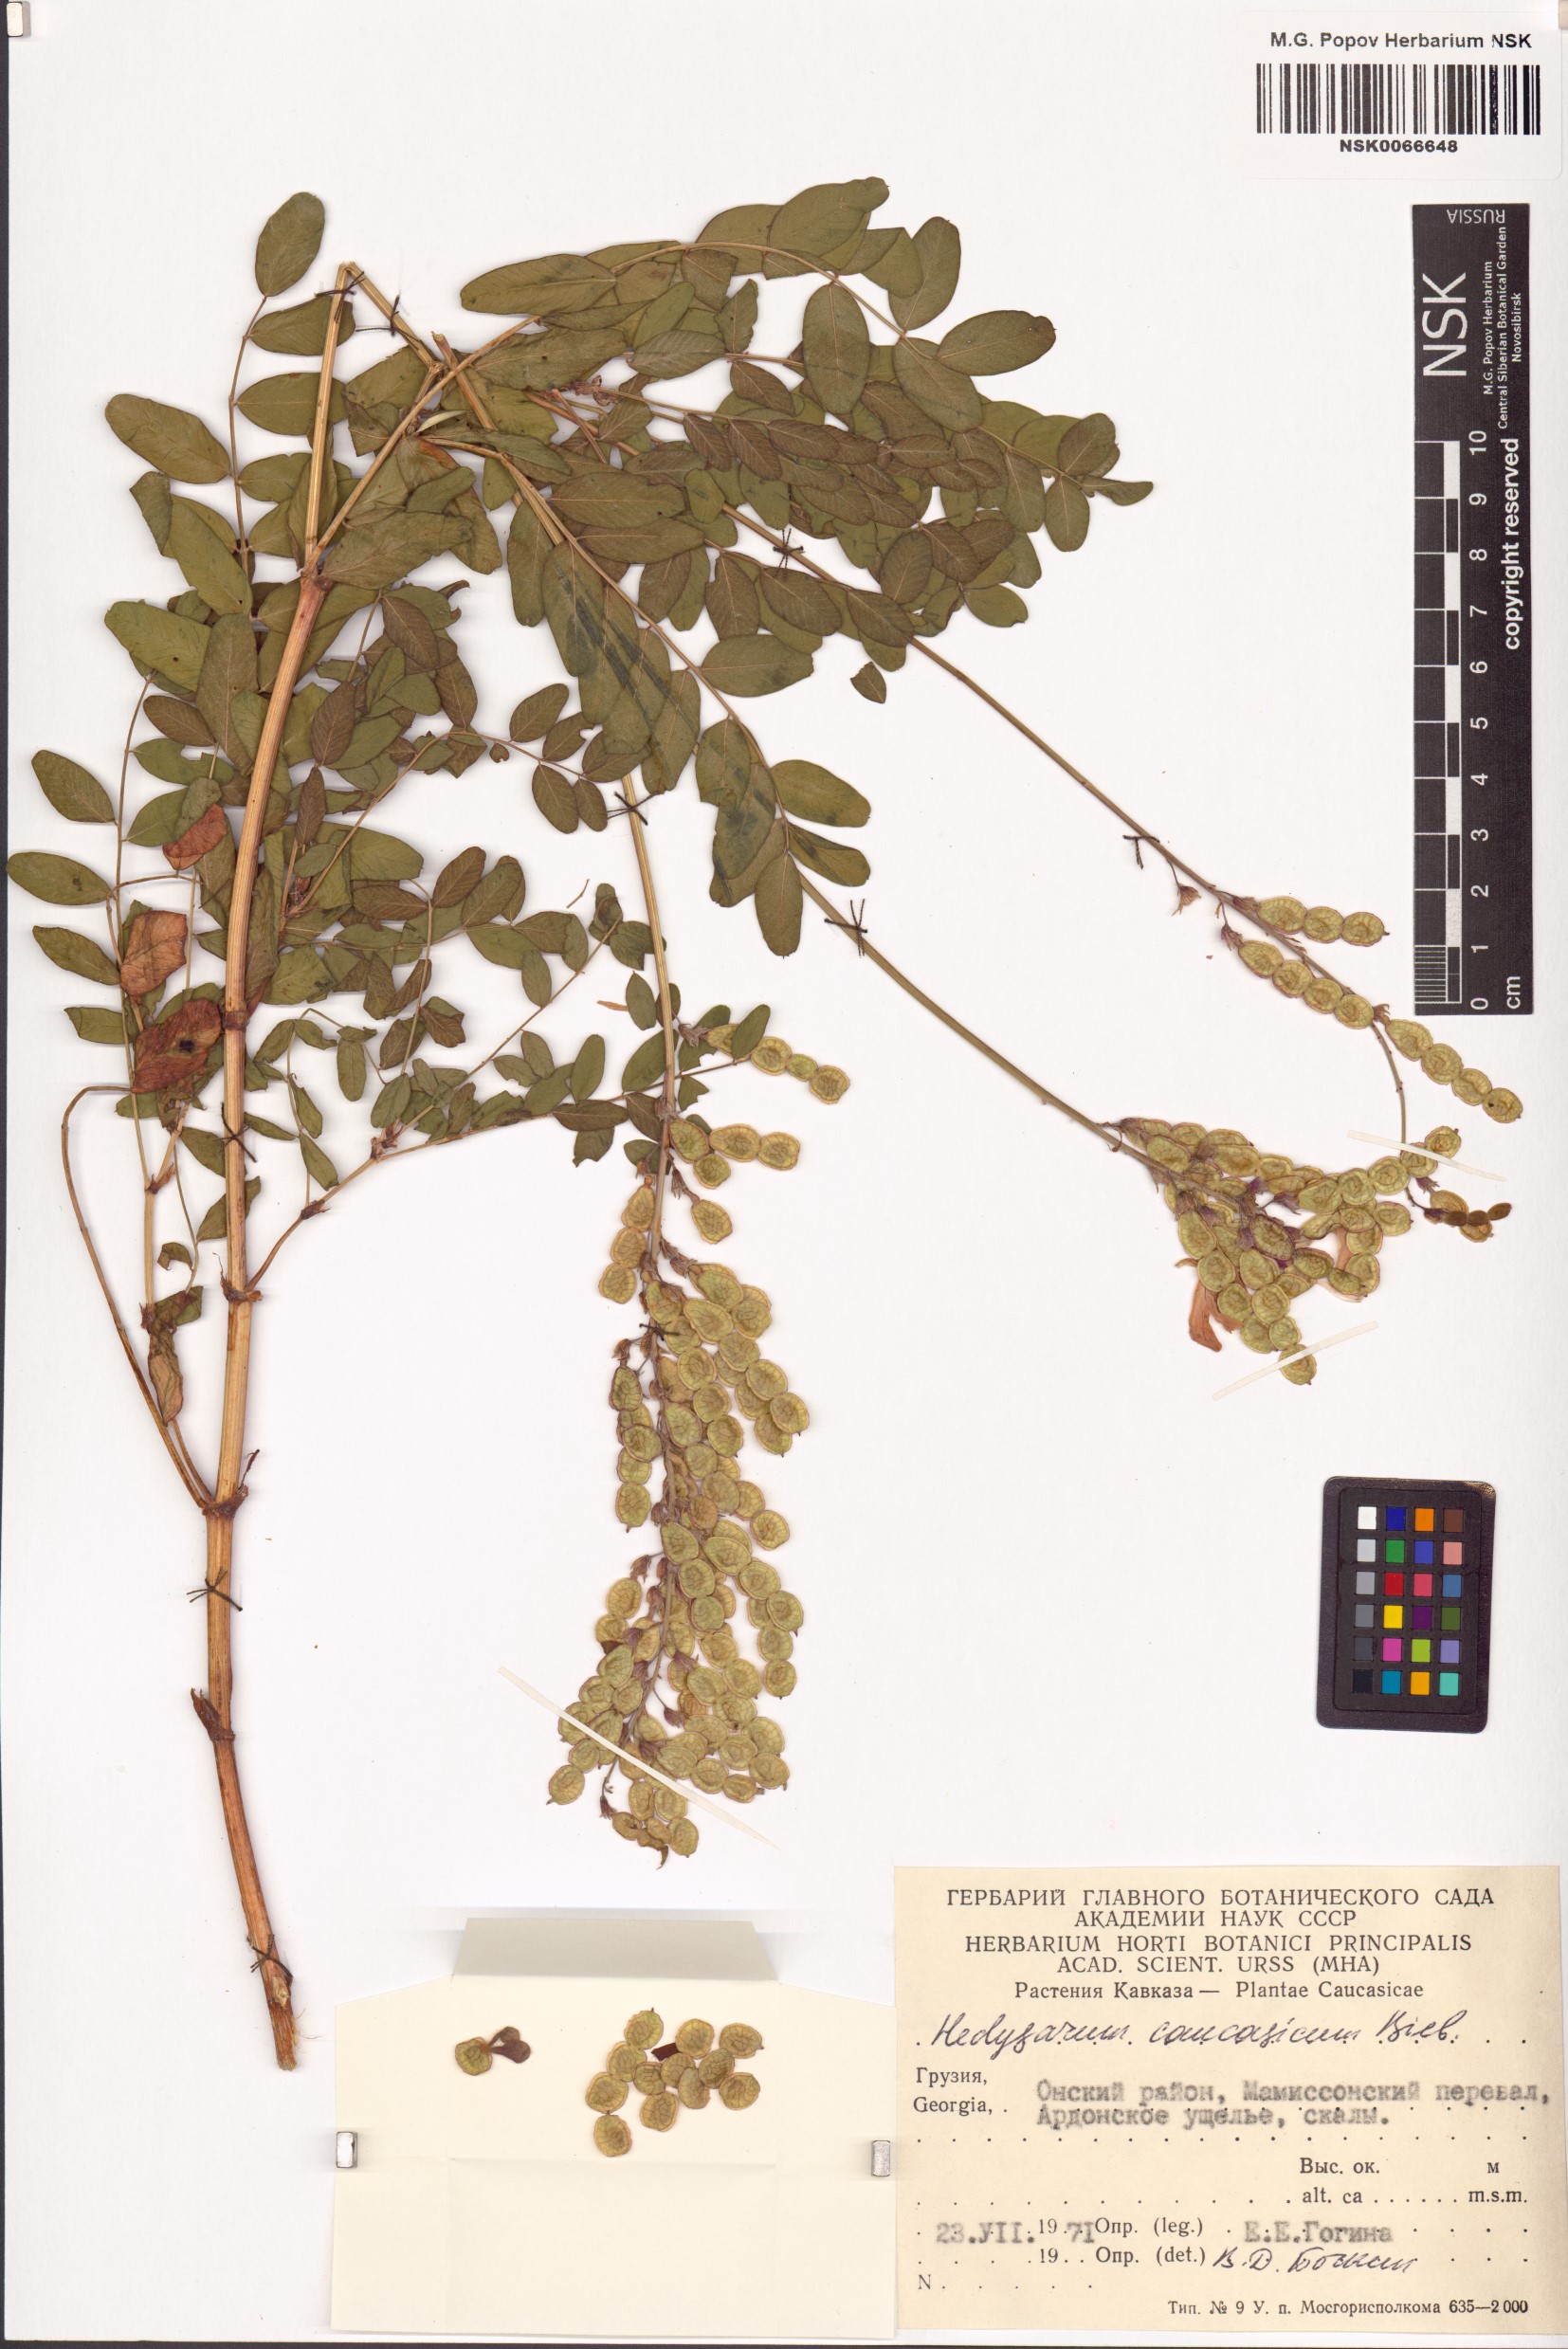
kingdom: Plantae
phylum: Tracheophyta
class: Magnoliopsida
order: Fabales
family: Fabaceae
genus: Hedysarum
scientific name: Hedysarum caucasicum
